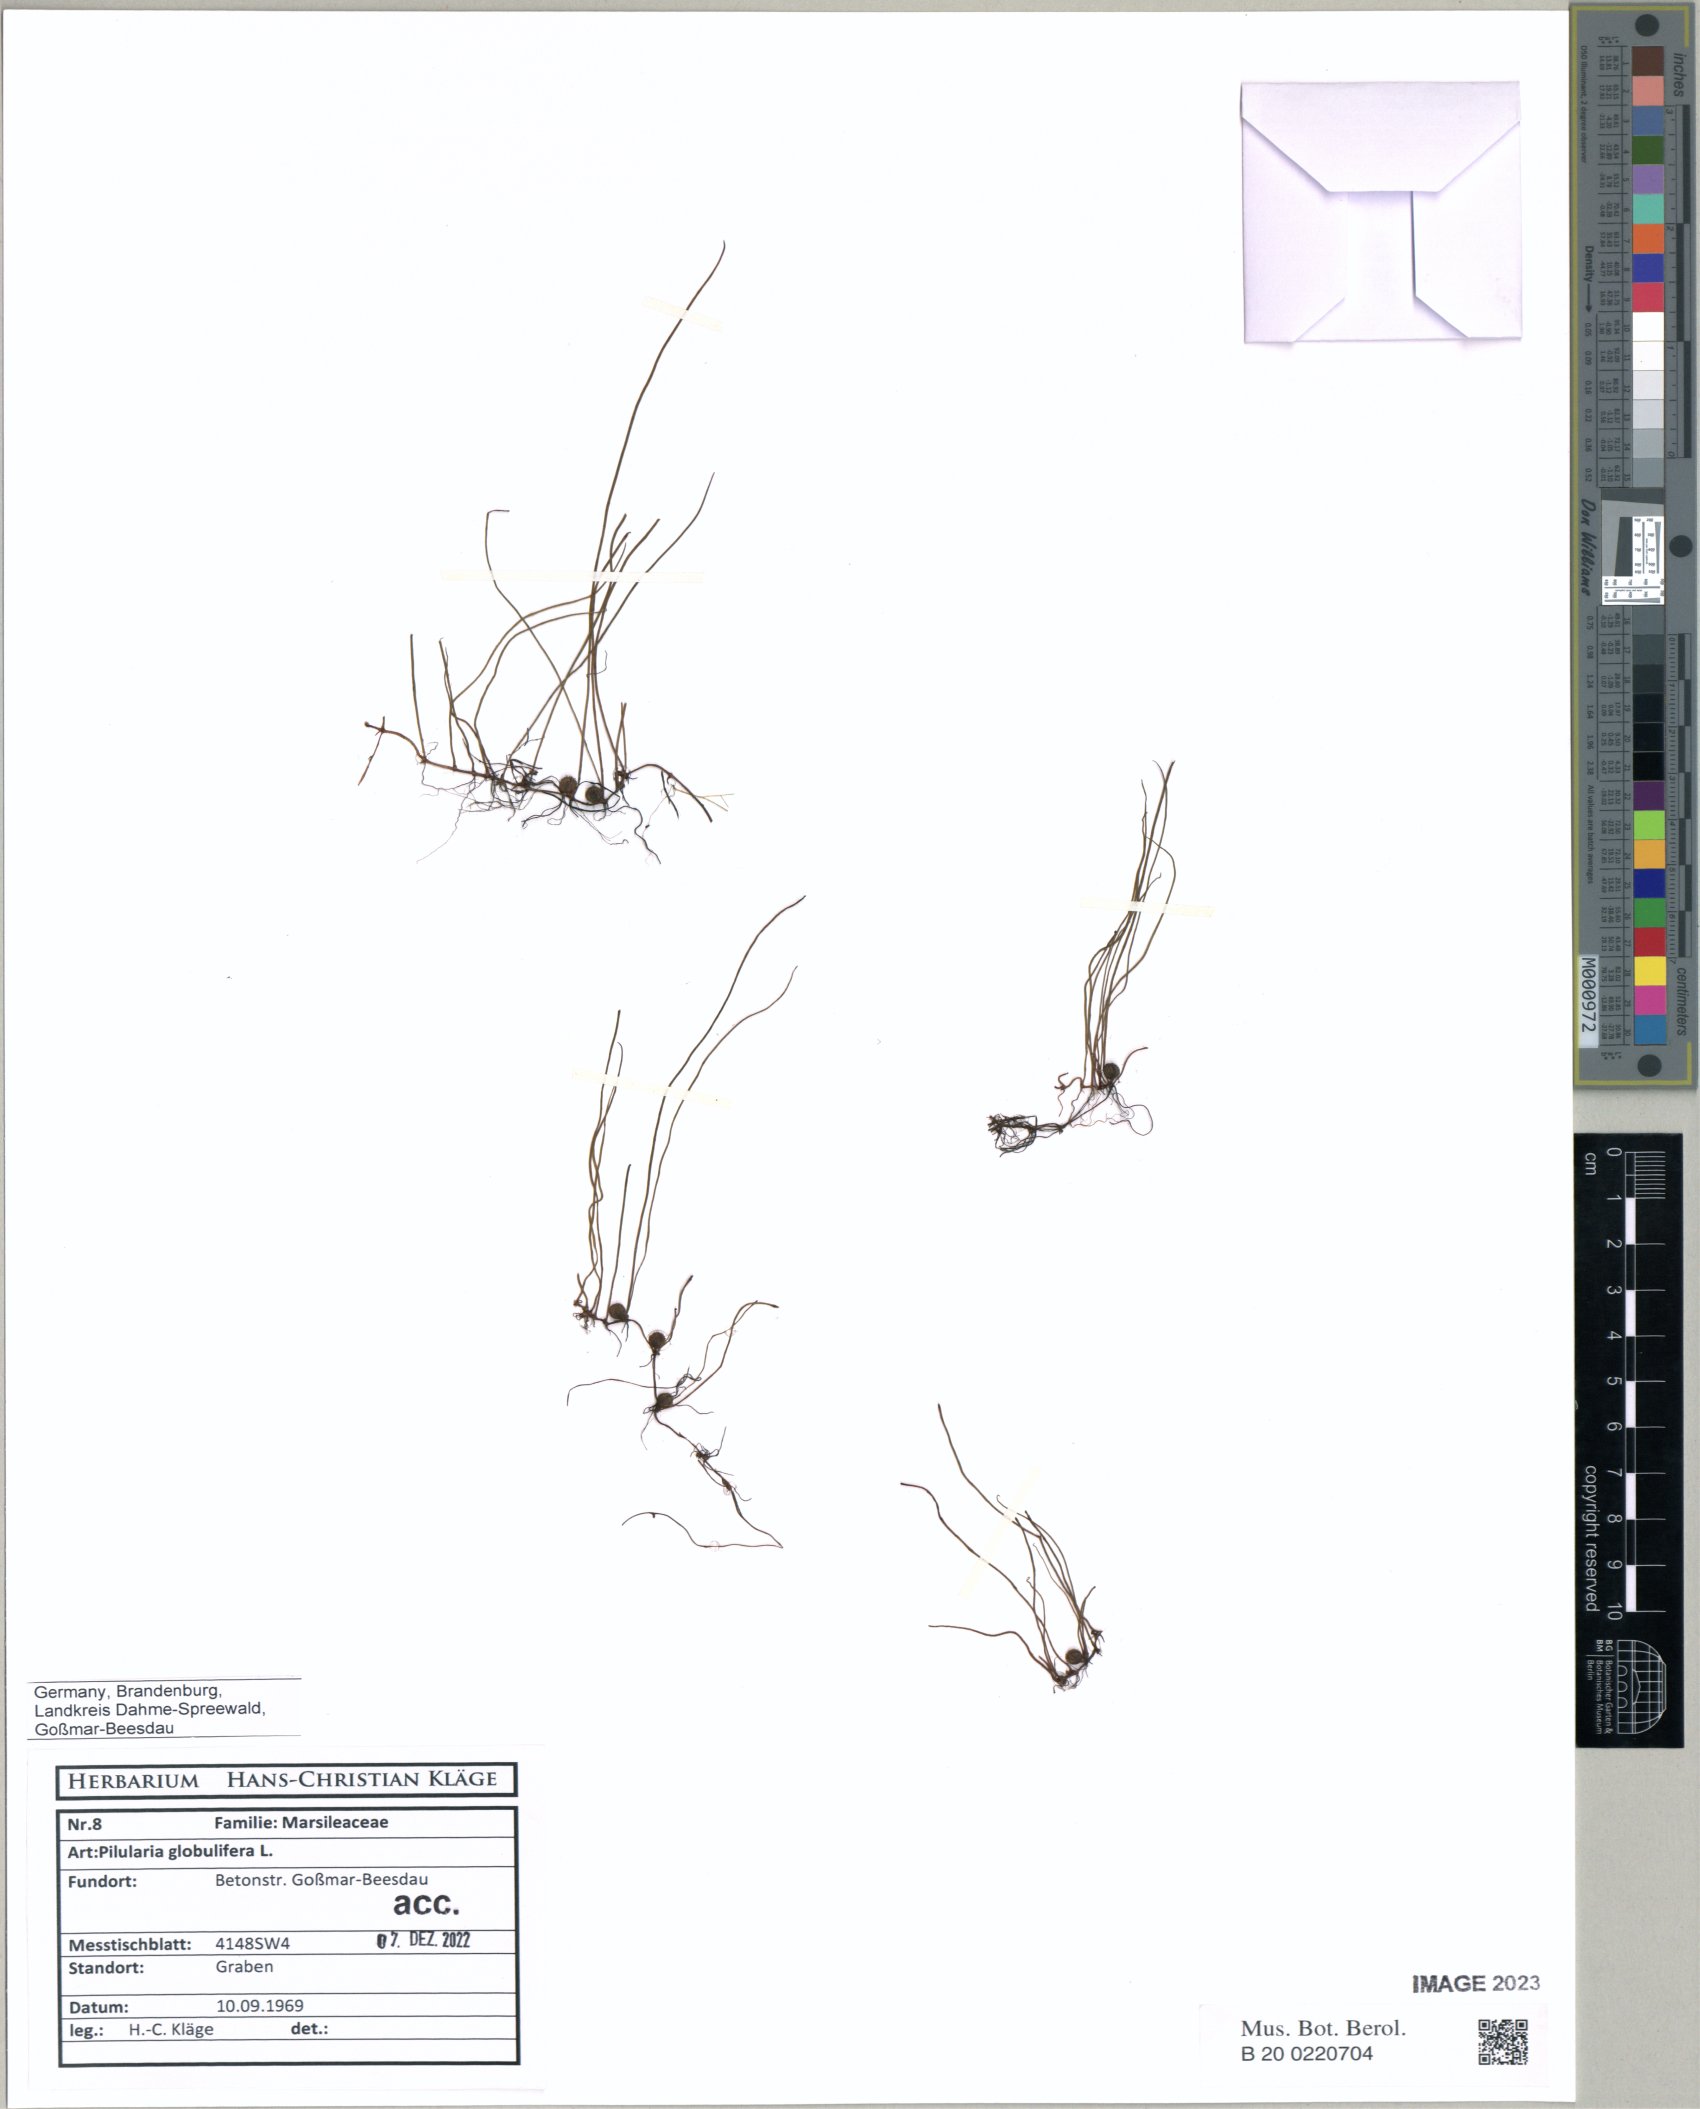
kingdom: Plantae
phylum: Tracheophyta
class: Polypodiopsida
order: Salviniales
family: Marsileaceae
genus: Pilularia
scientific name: Pilularia globulifera
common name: Pillwort
